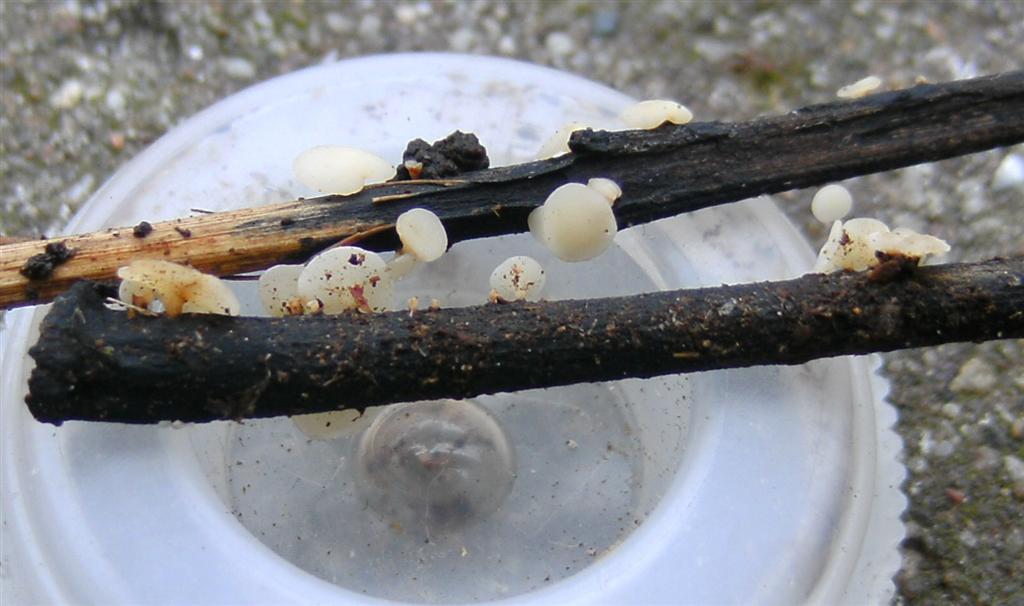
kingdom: Fungi
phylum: Ascomycota
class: Leotiomycetes
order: Helotiales
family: Helotiaceae
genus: Hymenoscyphus
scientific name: Hymenoscyphus fraxineus
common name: asketoptørre-stilkskive
